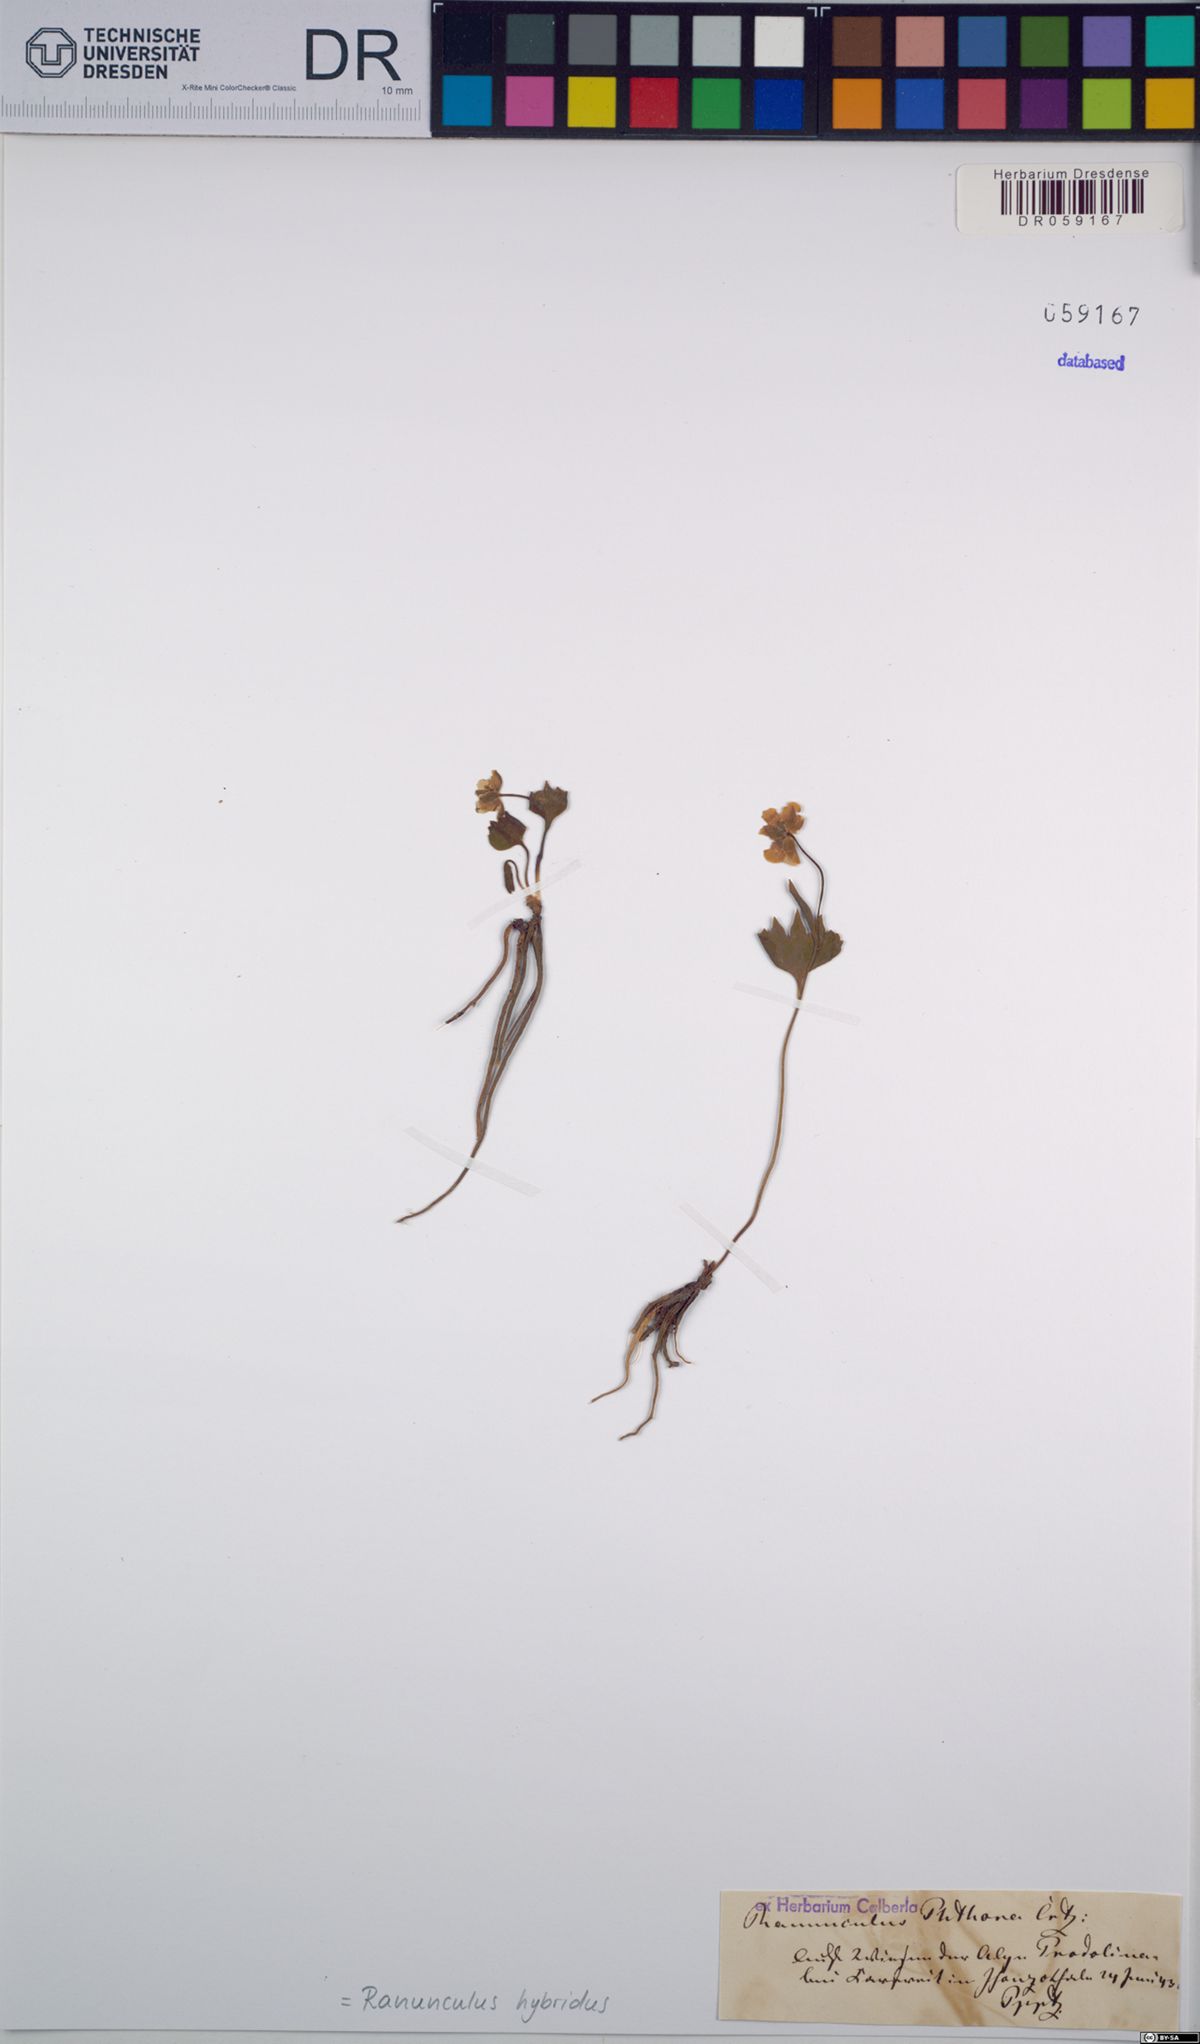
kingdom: Plantae
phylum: Tracheophyta
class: Magnoliopsida
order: Ranunculales
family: Ranunculaceae
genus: Ranunculus
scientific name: Ranunculus hybridus
